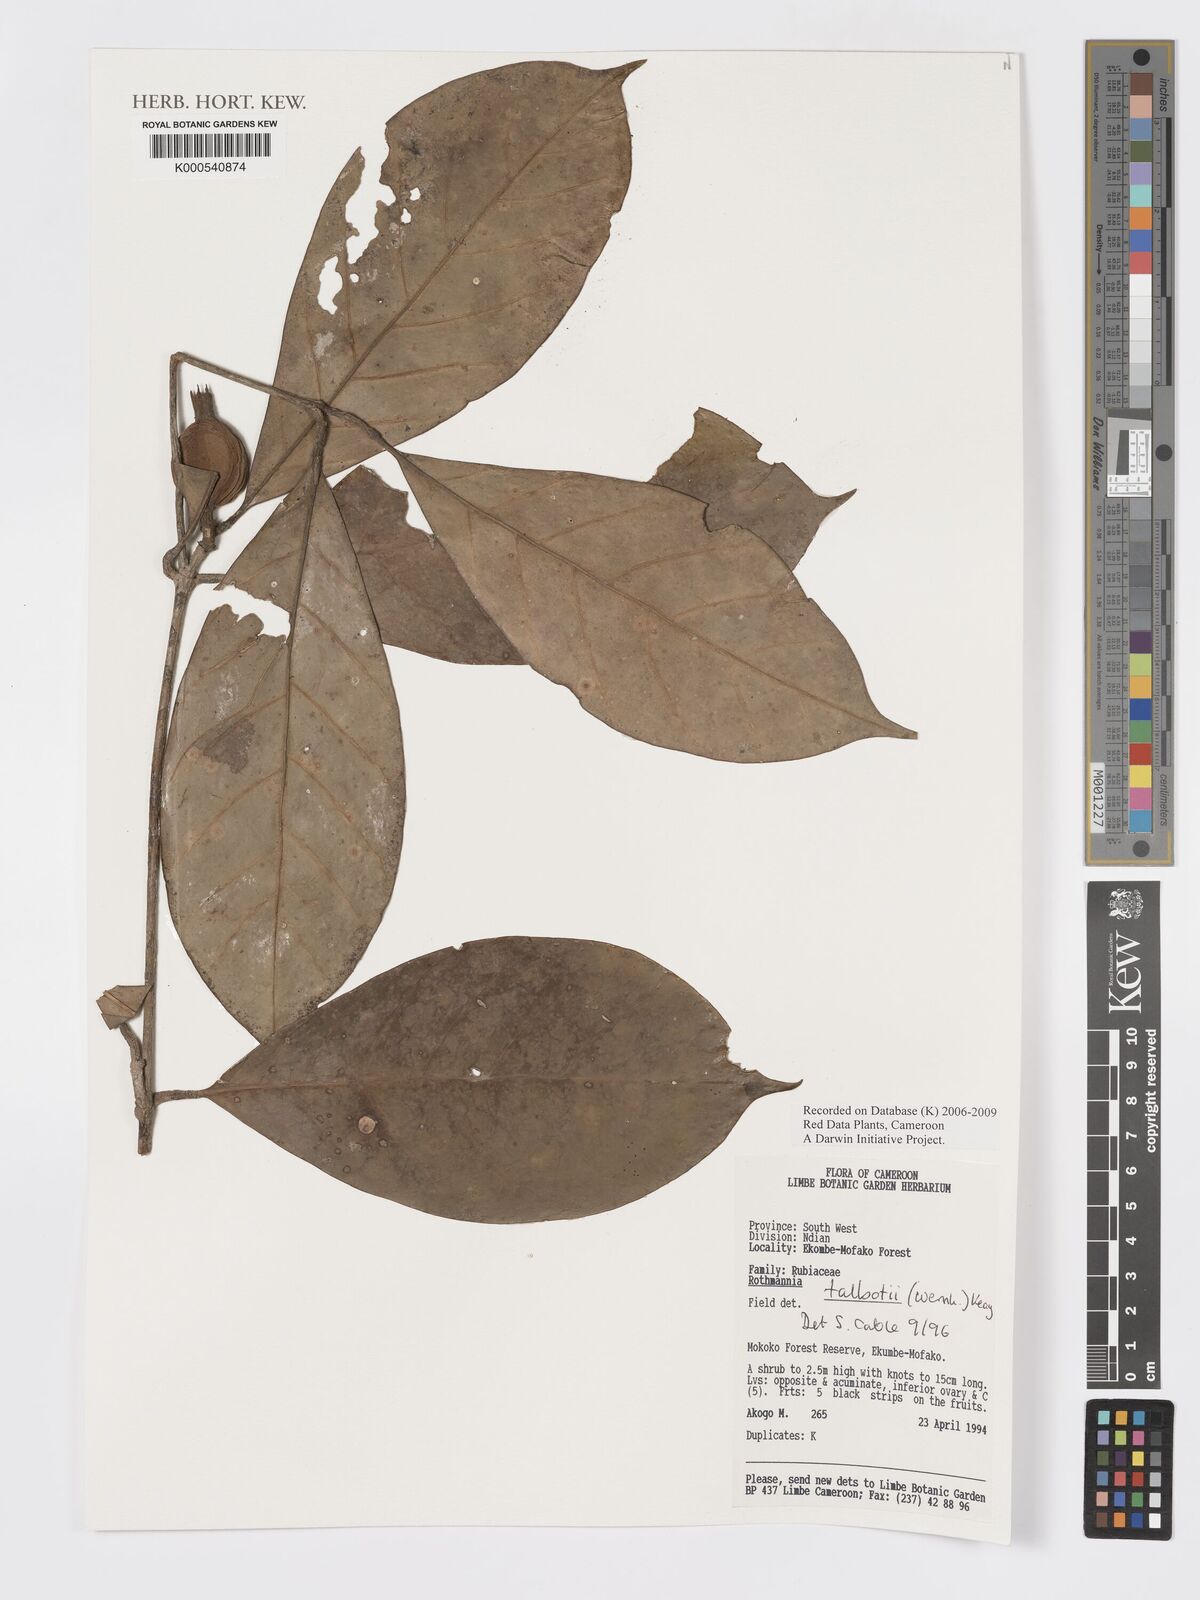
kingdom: Plantae
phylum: Tracheophyta
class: Magnoliopsida
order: Gentianales
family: Rubiaceae
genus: Rothmannia
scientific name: Rothmannia talbotii
